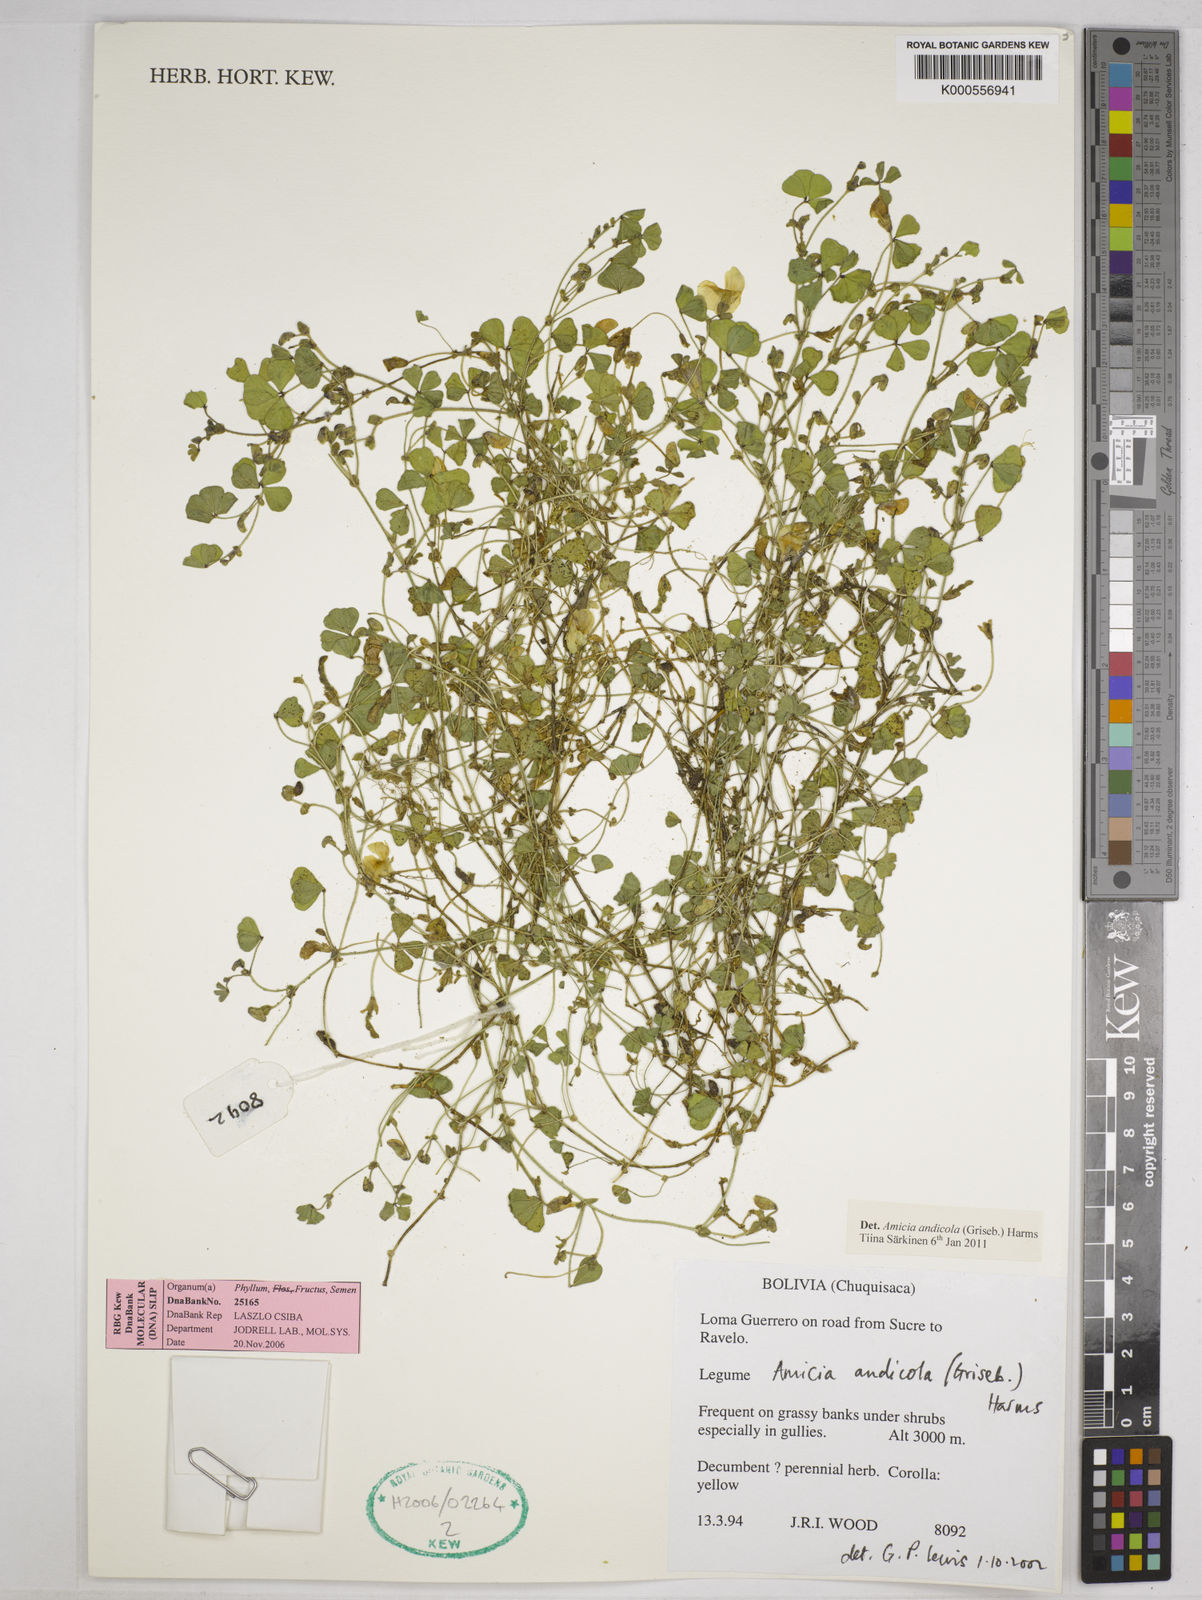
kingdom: Plantae
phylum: Tracheophyta
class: Magnoliopsida
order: Fabales
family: Fabaceae
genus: Amicia
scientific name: Amicia andicola
